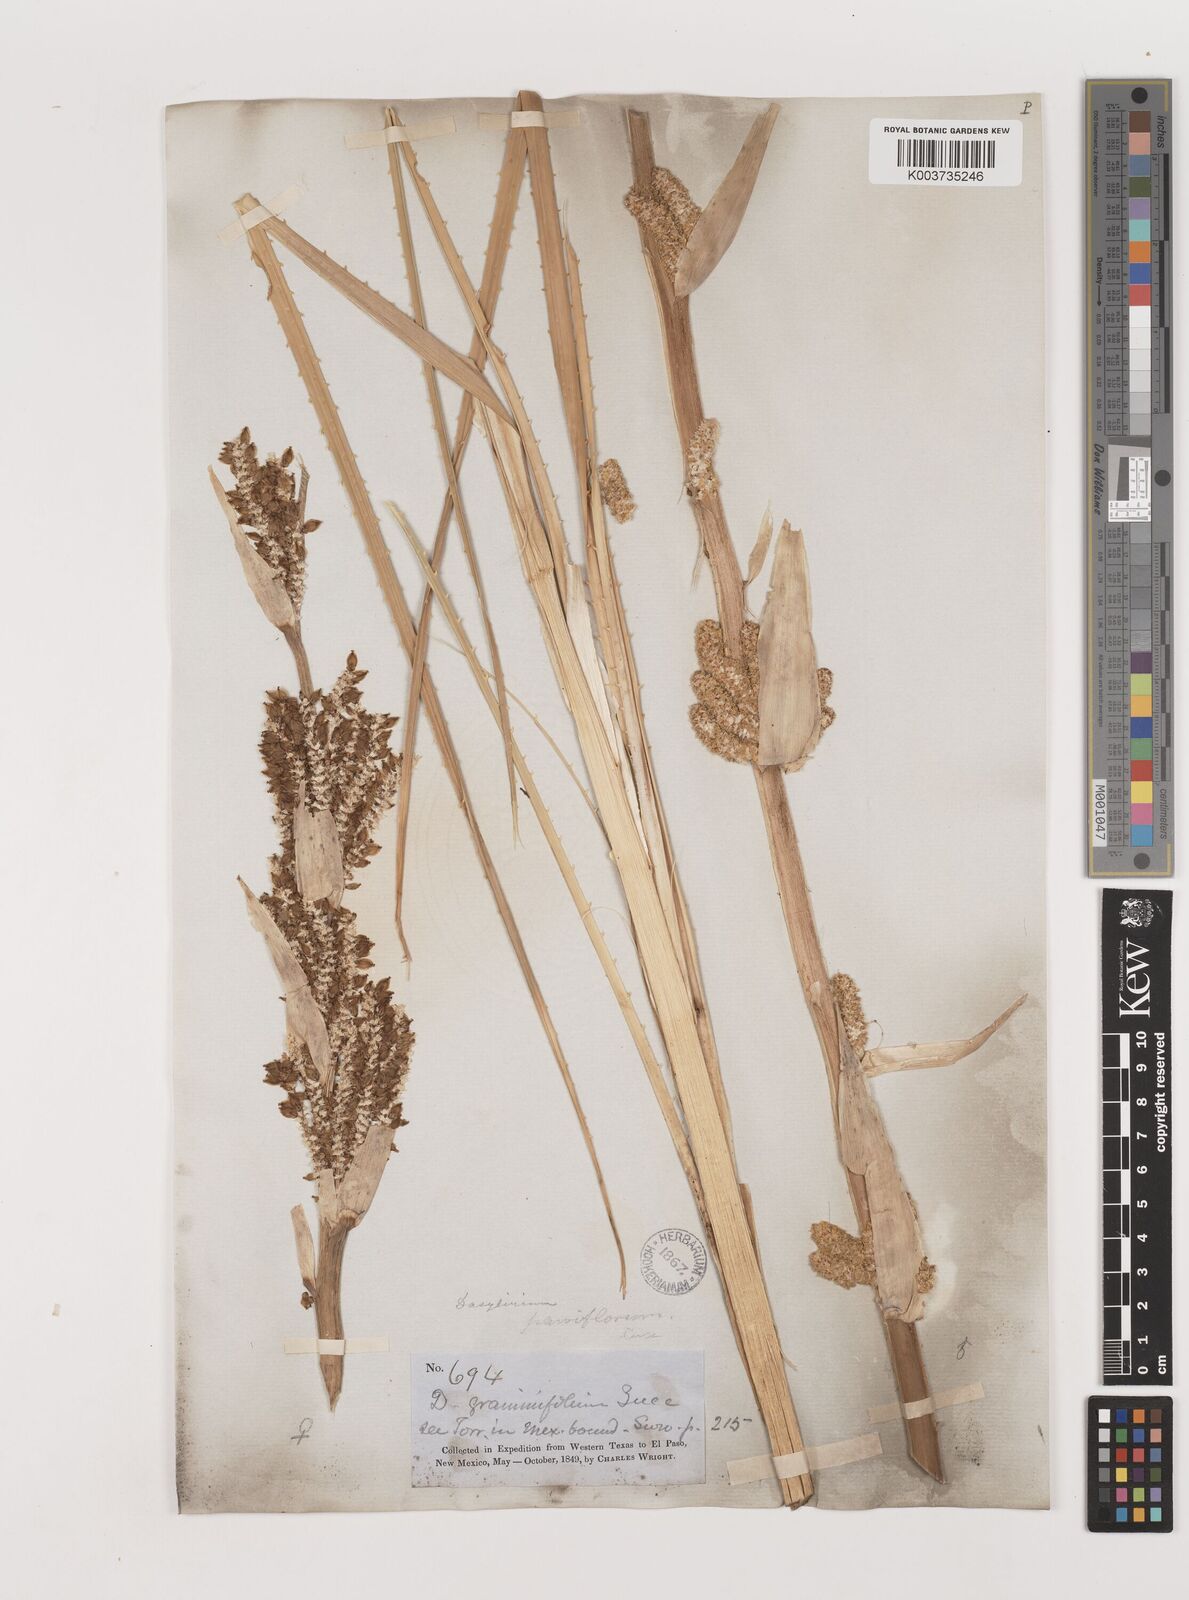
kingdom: Plantae
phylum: Tracheophyta
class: Liliopsida
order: Asparagales
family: Asparagaceae
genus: Dasylirion
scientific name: Dasylirion texanum
